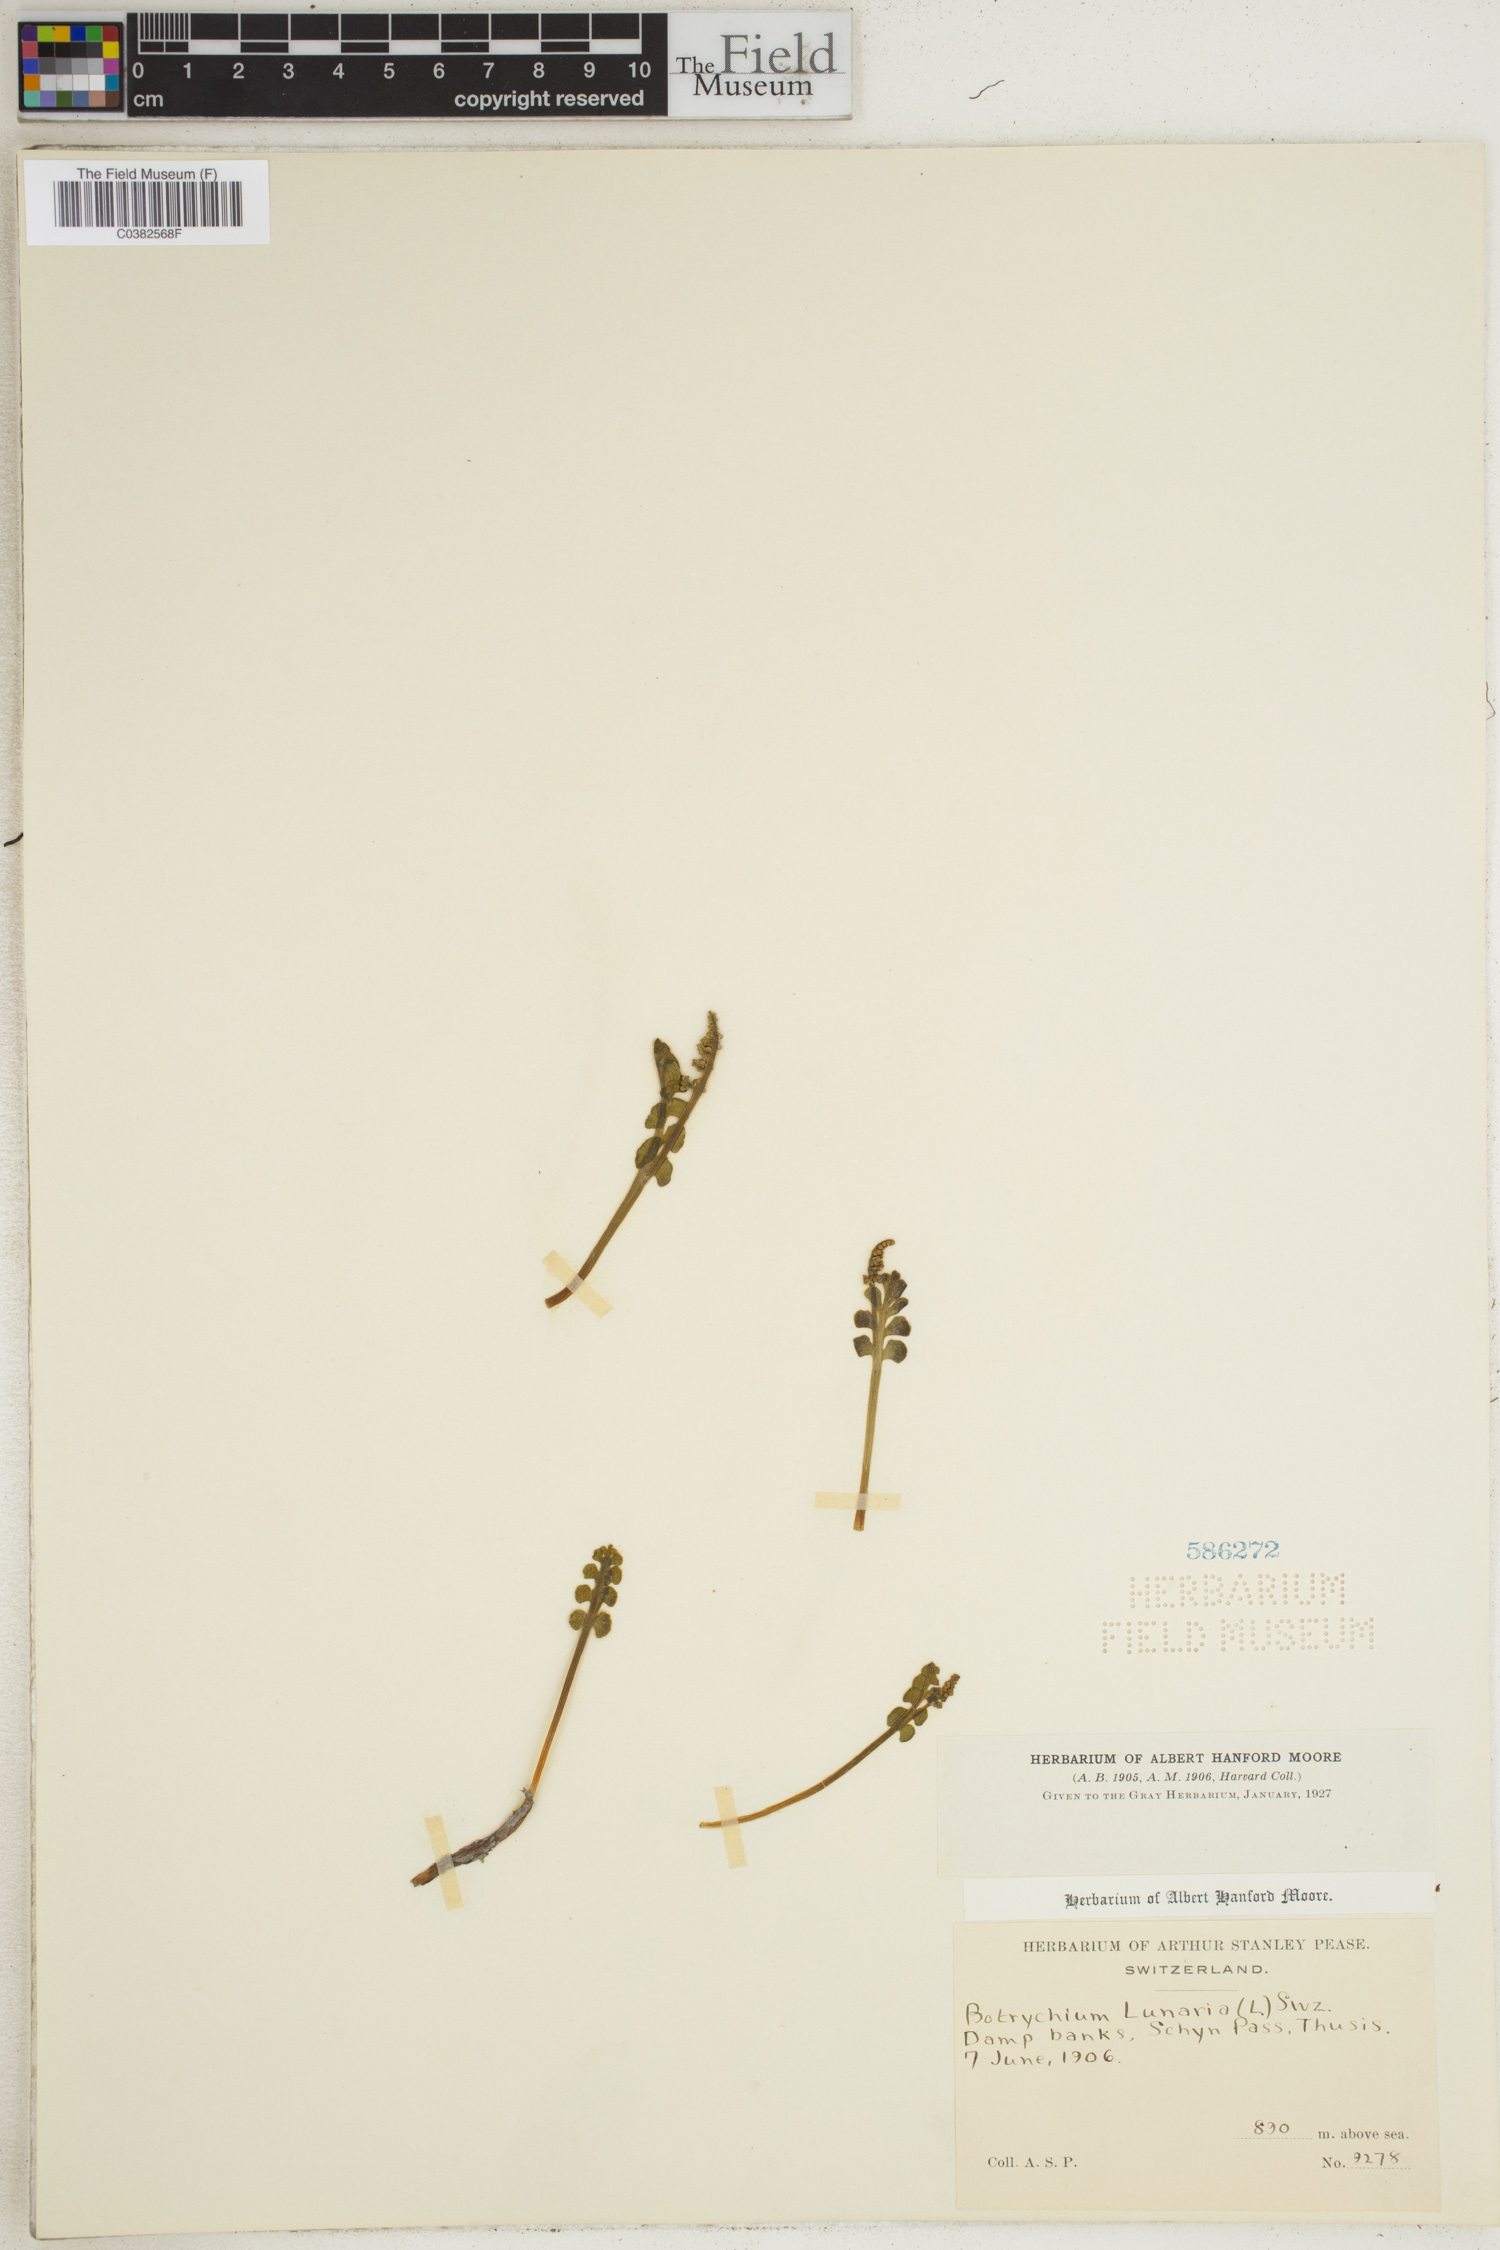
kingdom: Plantae
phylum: Tracheophyta
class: Polypodiopsida
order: Ophioglossales
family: Ophioglossaceae
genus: Botrychium
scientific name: Botrychium lunaria
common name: Moonwort
